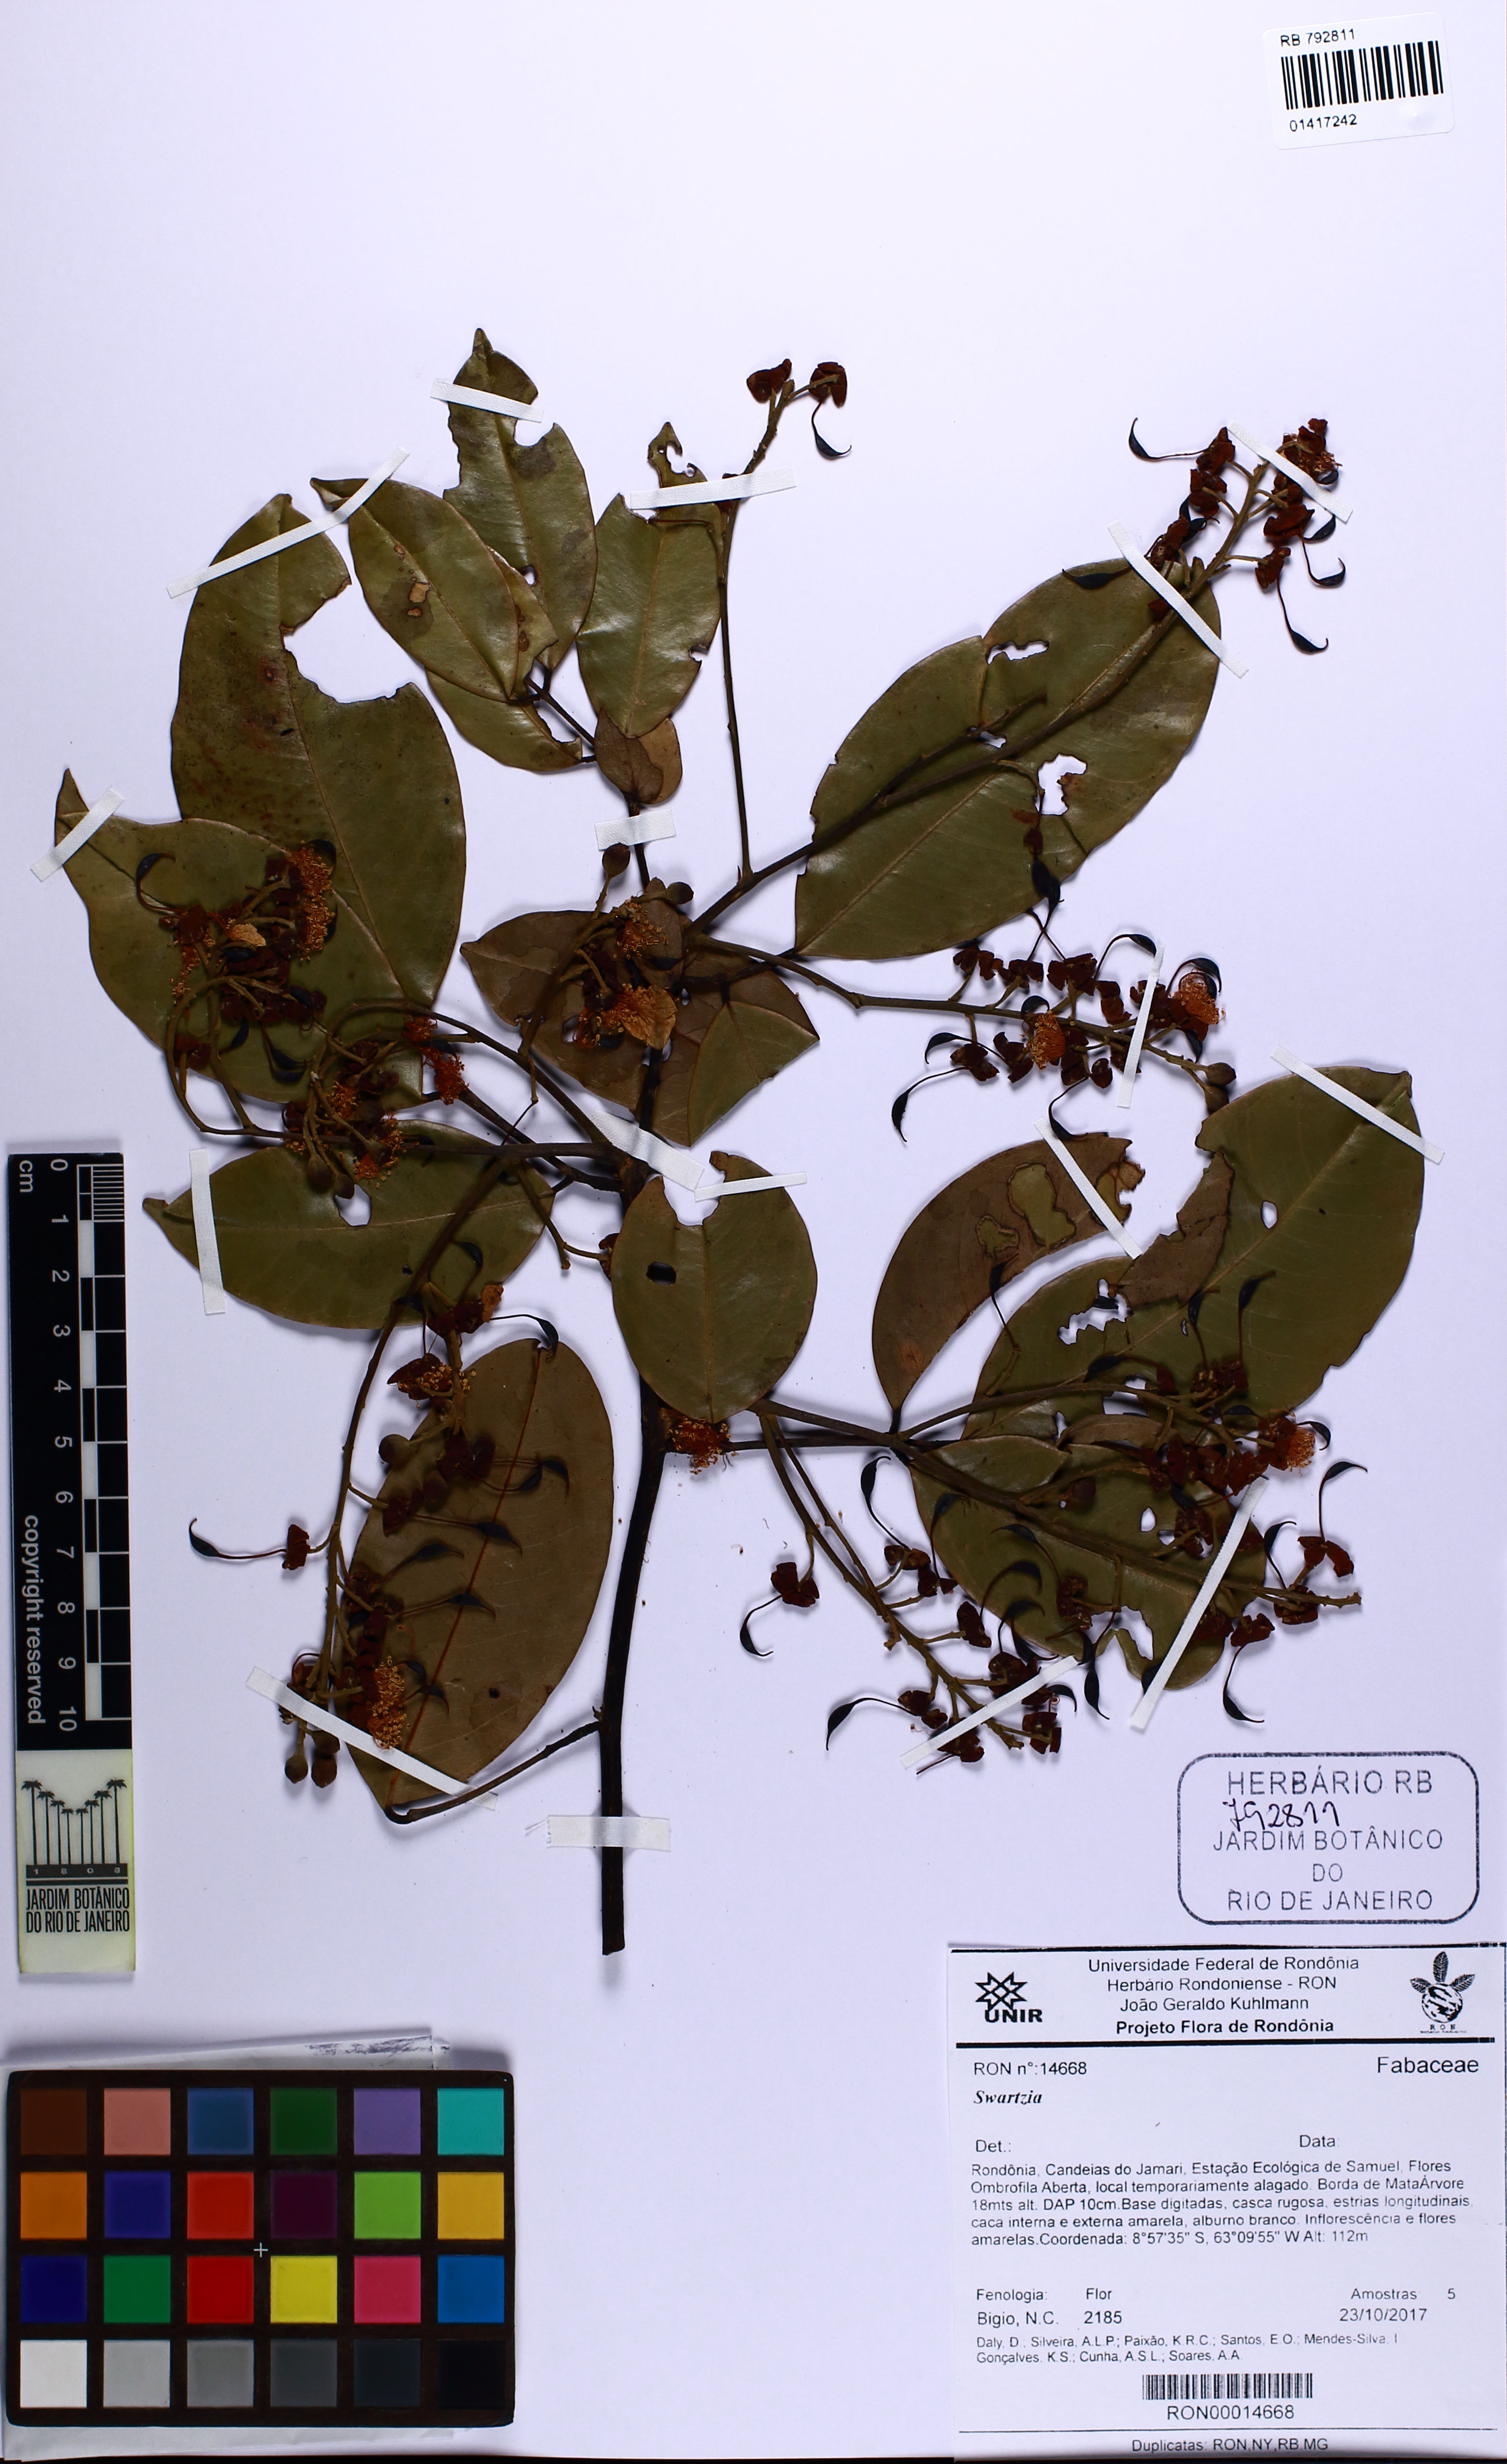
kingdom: Plantae
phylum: Tracheophyta
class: Magnoliopsida
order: Fabales
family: Fabaceae
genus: Swartzia
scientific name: Swartzia
